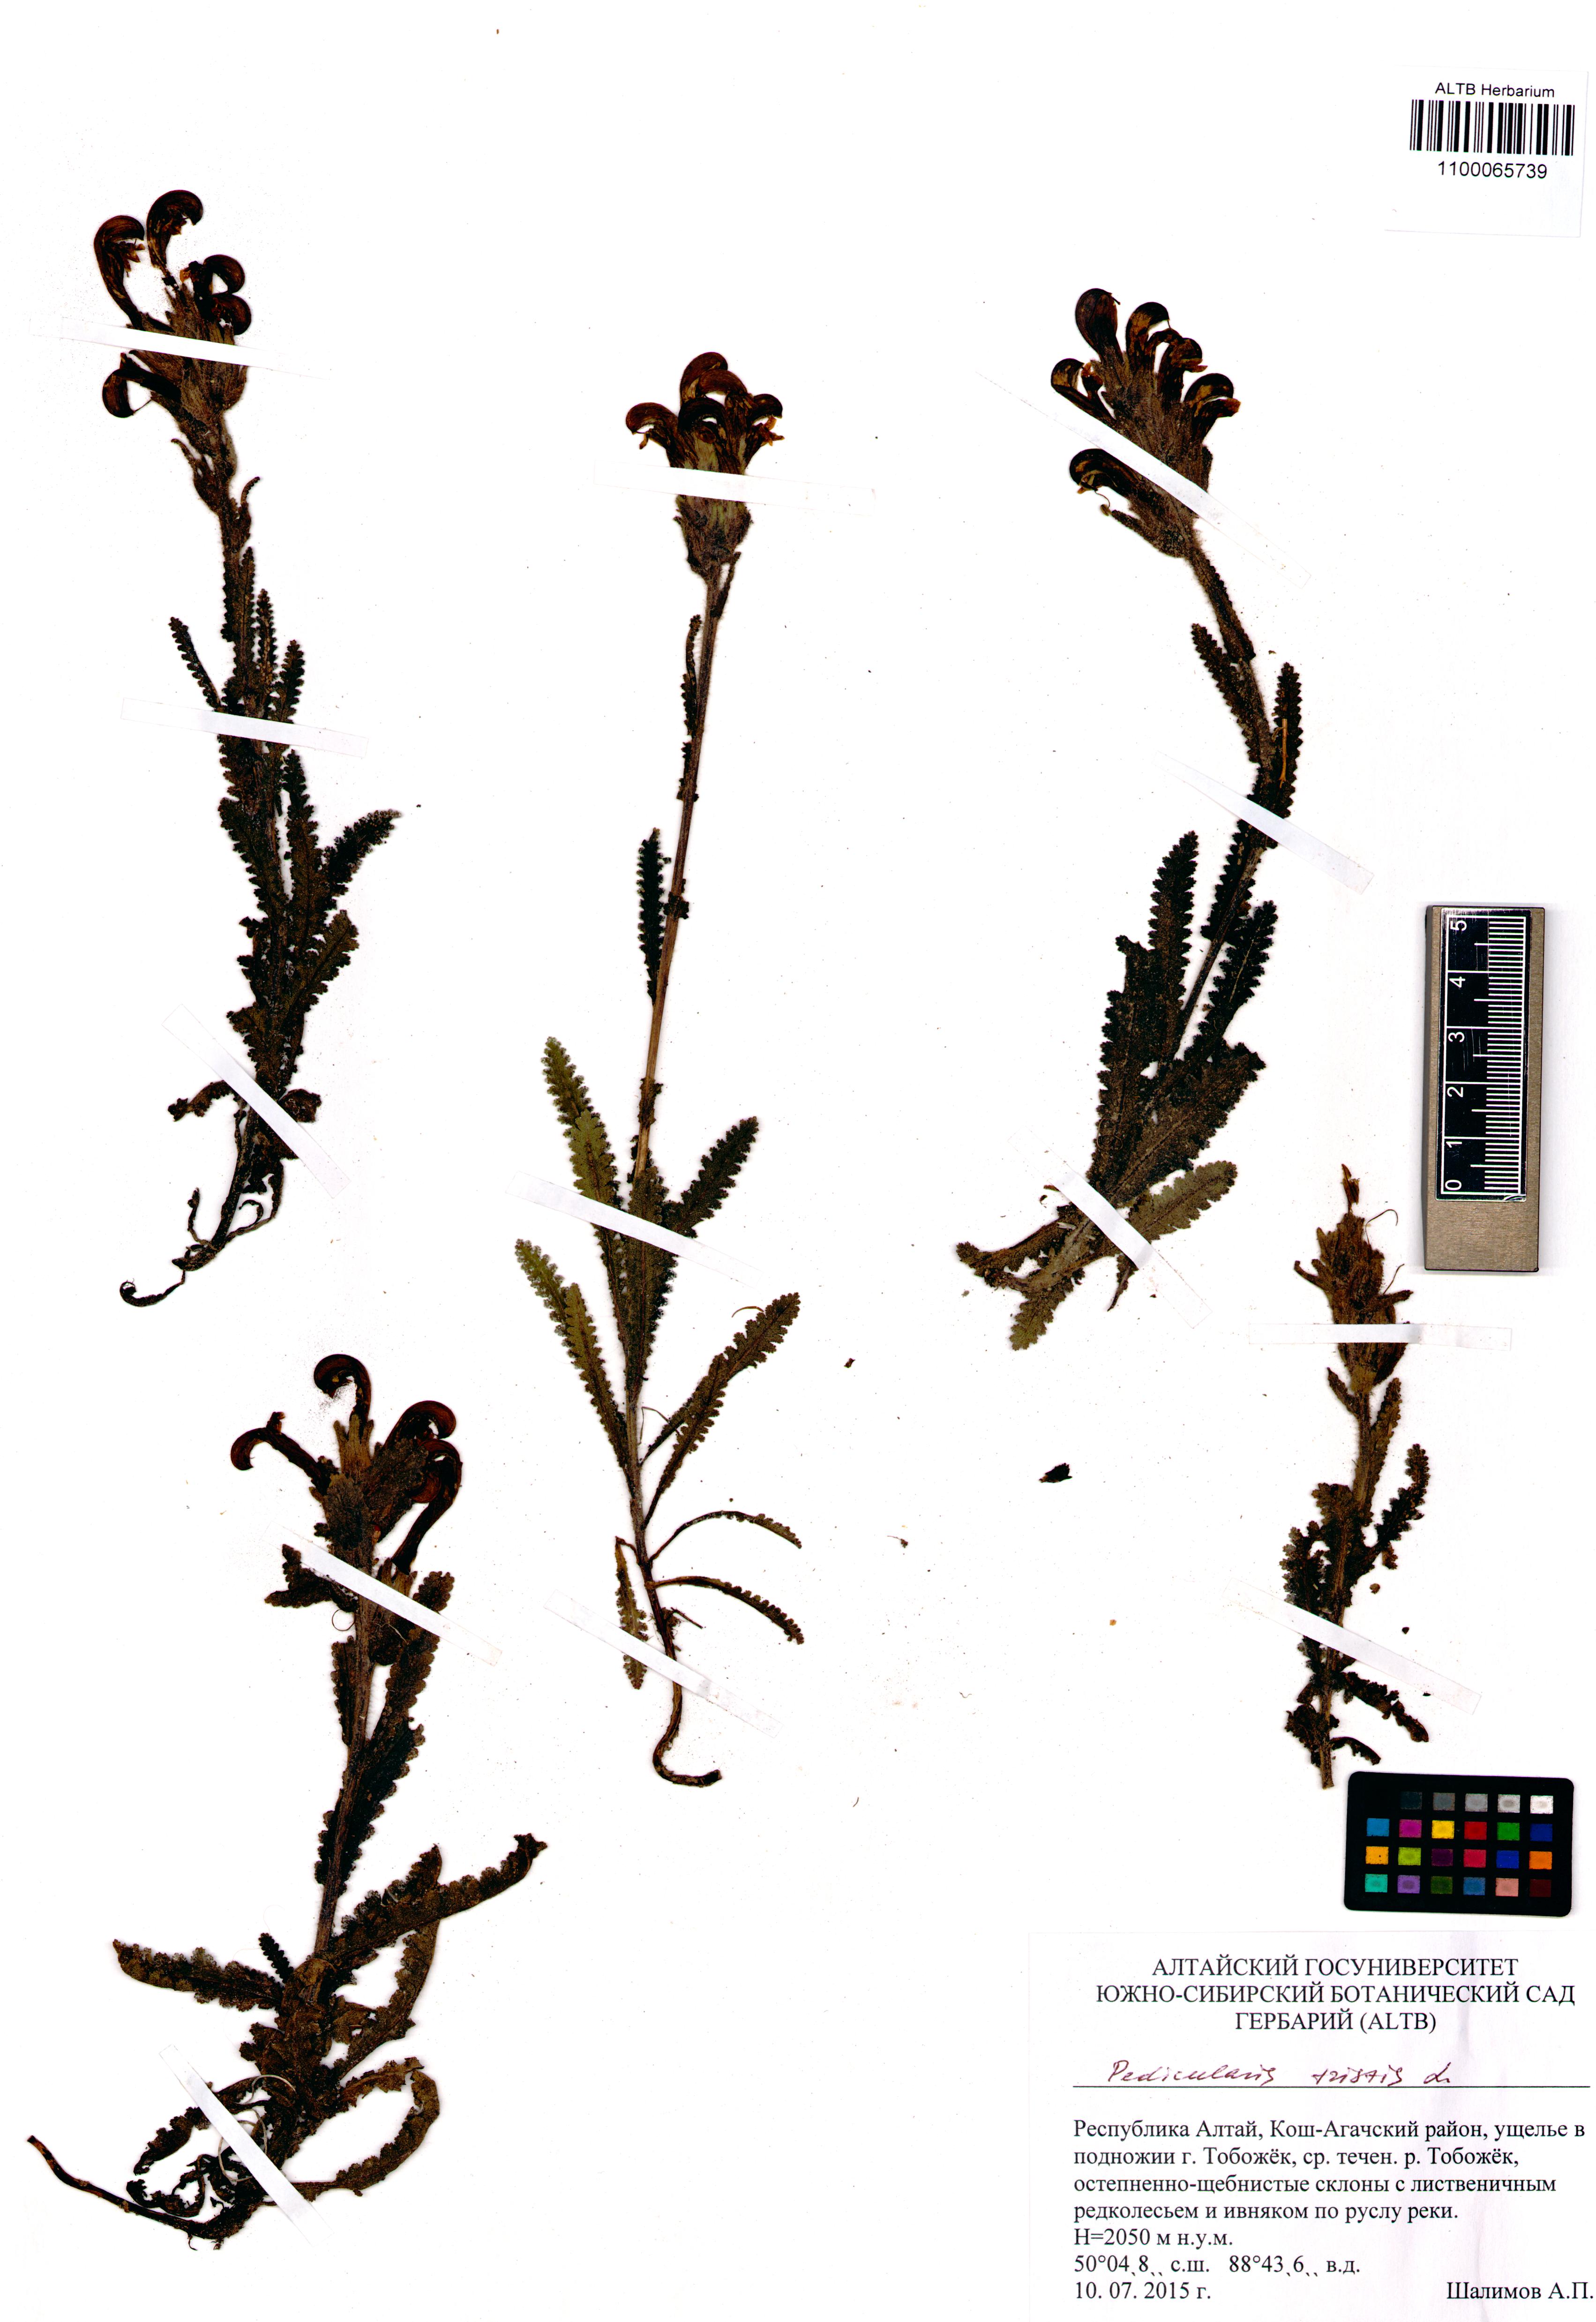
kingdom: Plantae
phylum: Tracheophyta
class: Magnoliopsida
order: Lamiales
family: Orobanchaceae
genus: Pedicularis
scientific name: Pedicularis tristis
